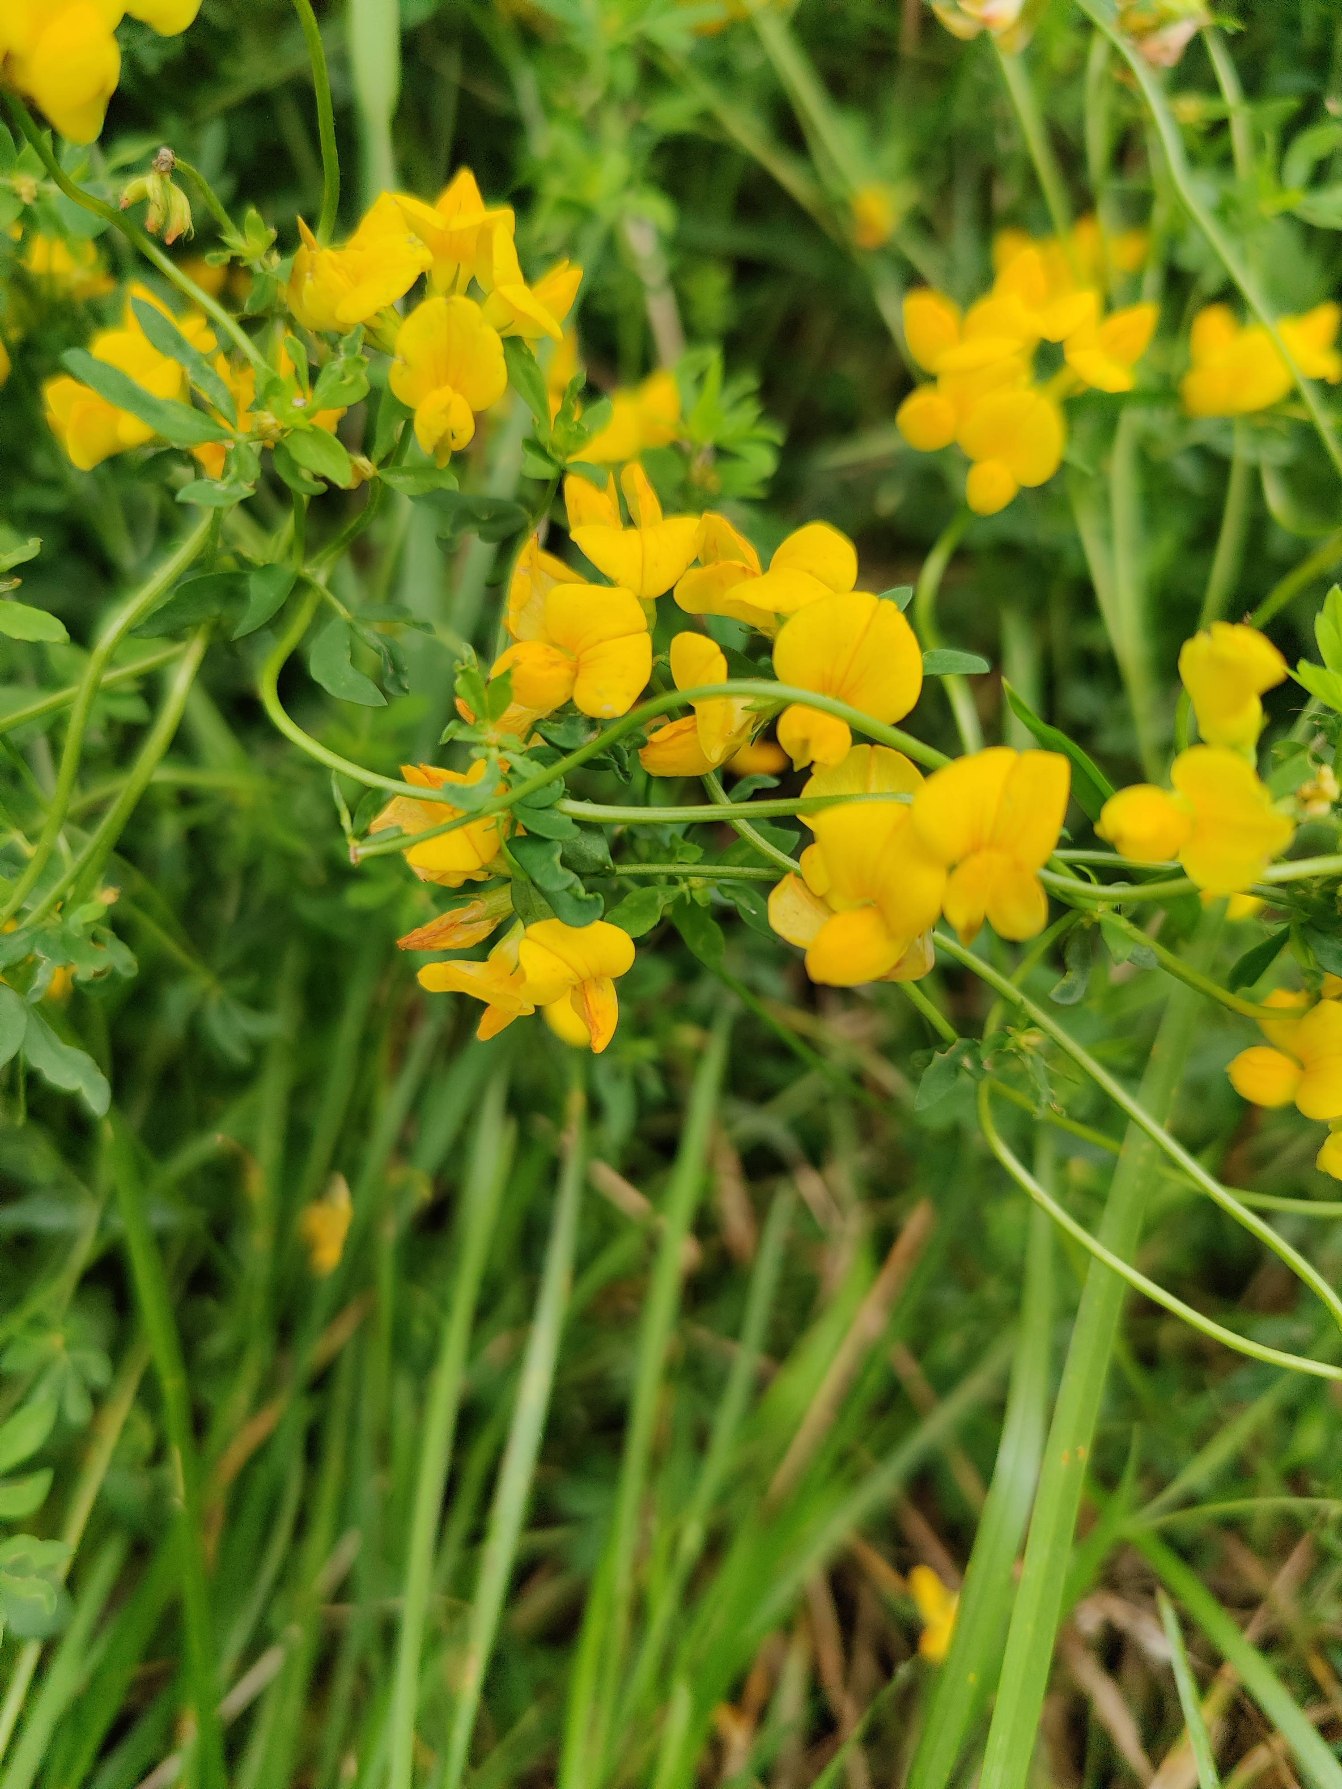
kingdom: Plantae
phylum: Tracheophyta
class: Magnoliopsida
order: Fabales
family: Fabaceae
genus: Lotus
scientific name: Lotus corniculatus
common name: Almindelig kællingetand
